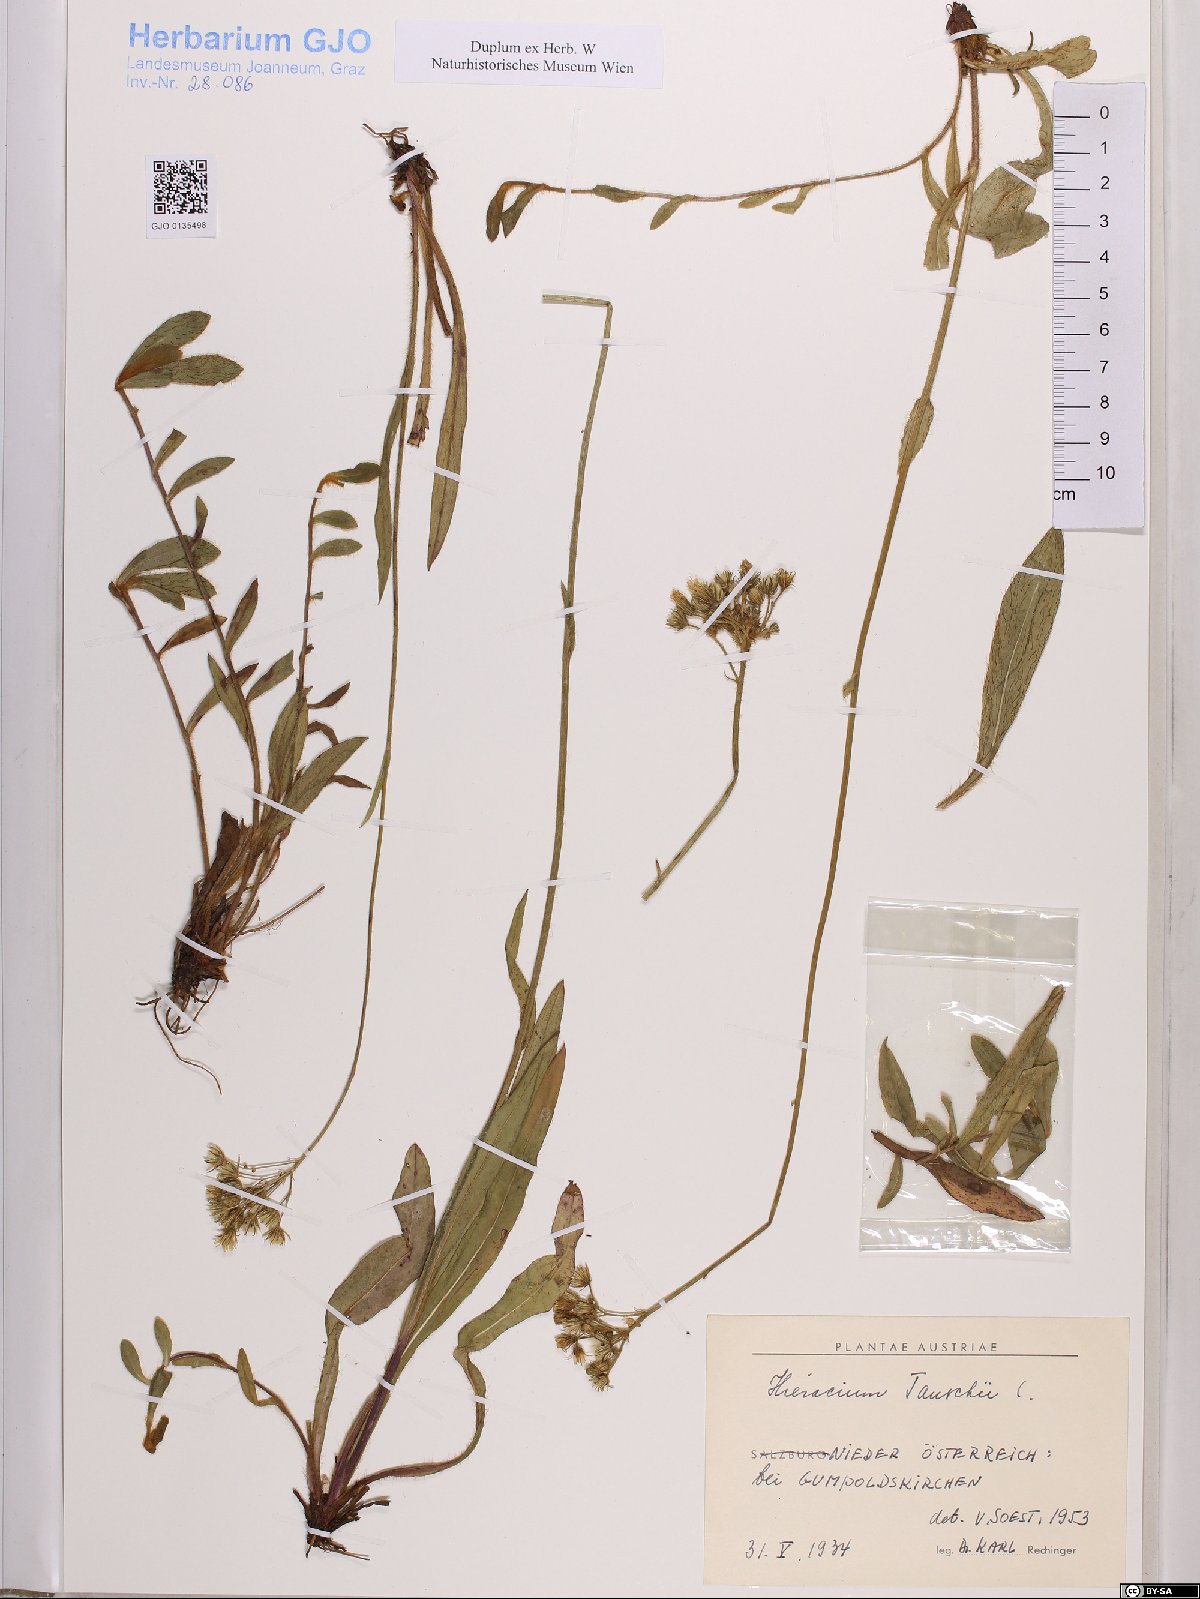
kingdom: Plantae
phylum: Tracheophyta
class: Magnoliopsida
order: Asterales
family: Asteraceae
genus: Pilosella
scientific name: Pilosella densiflora
